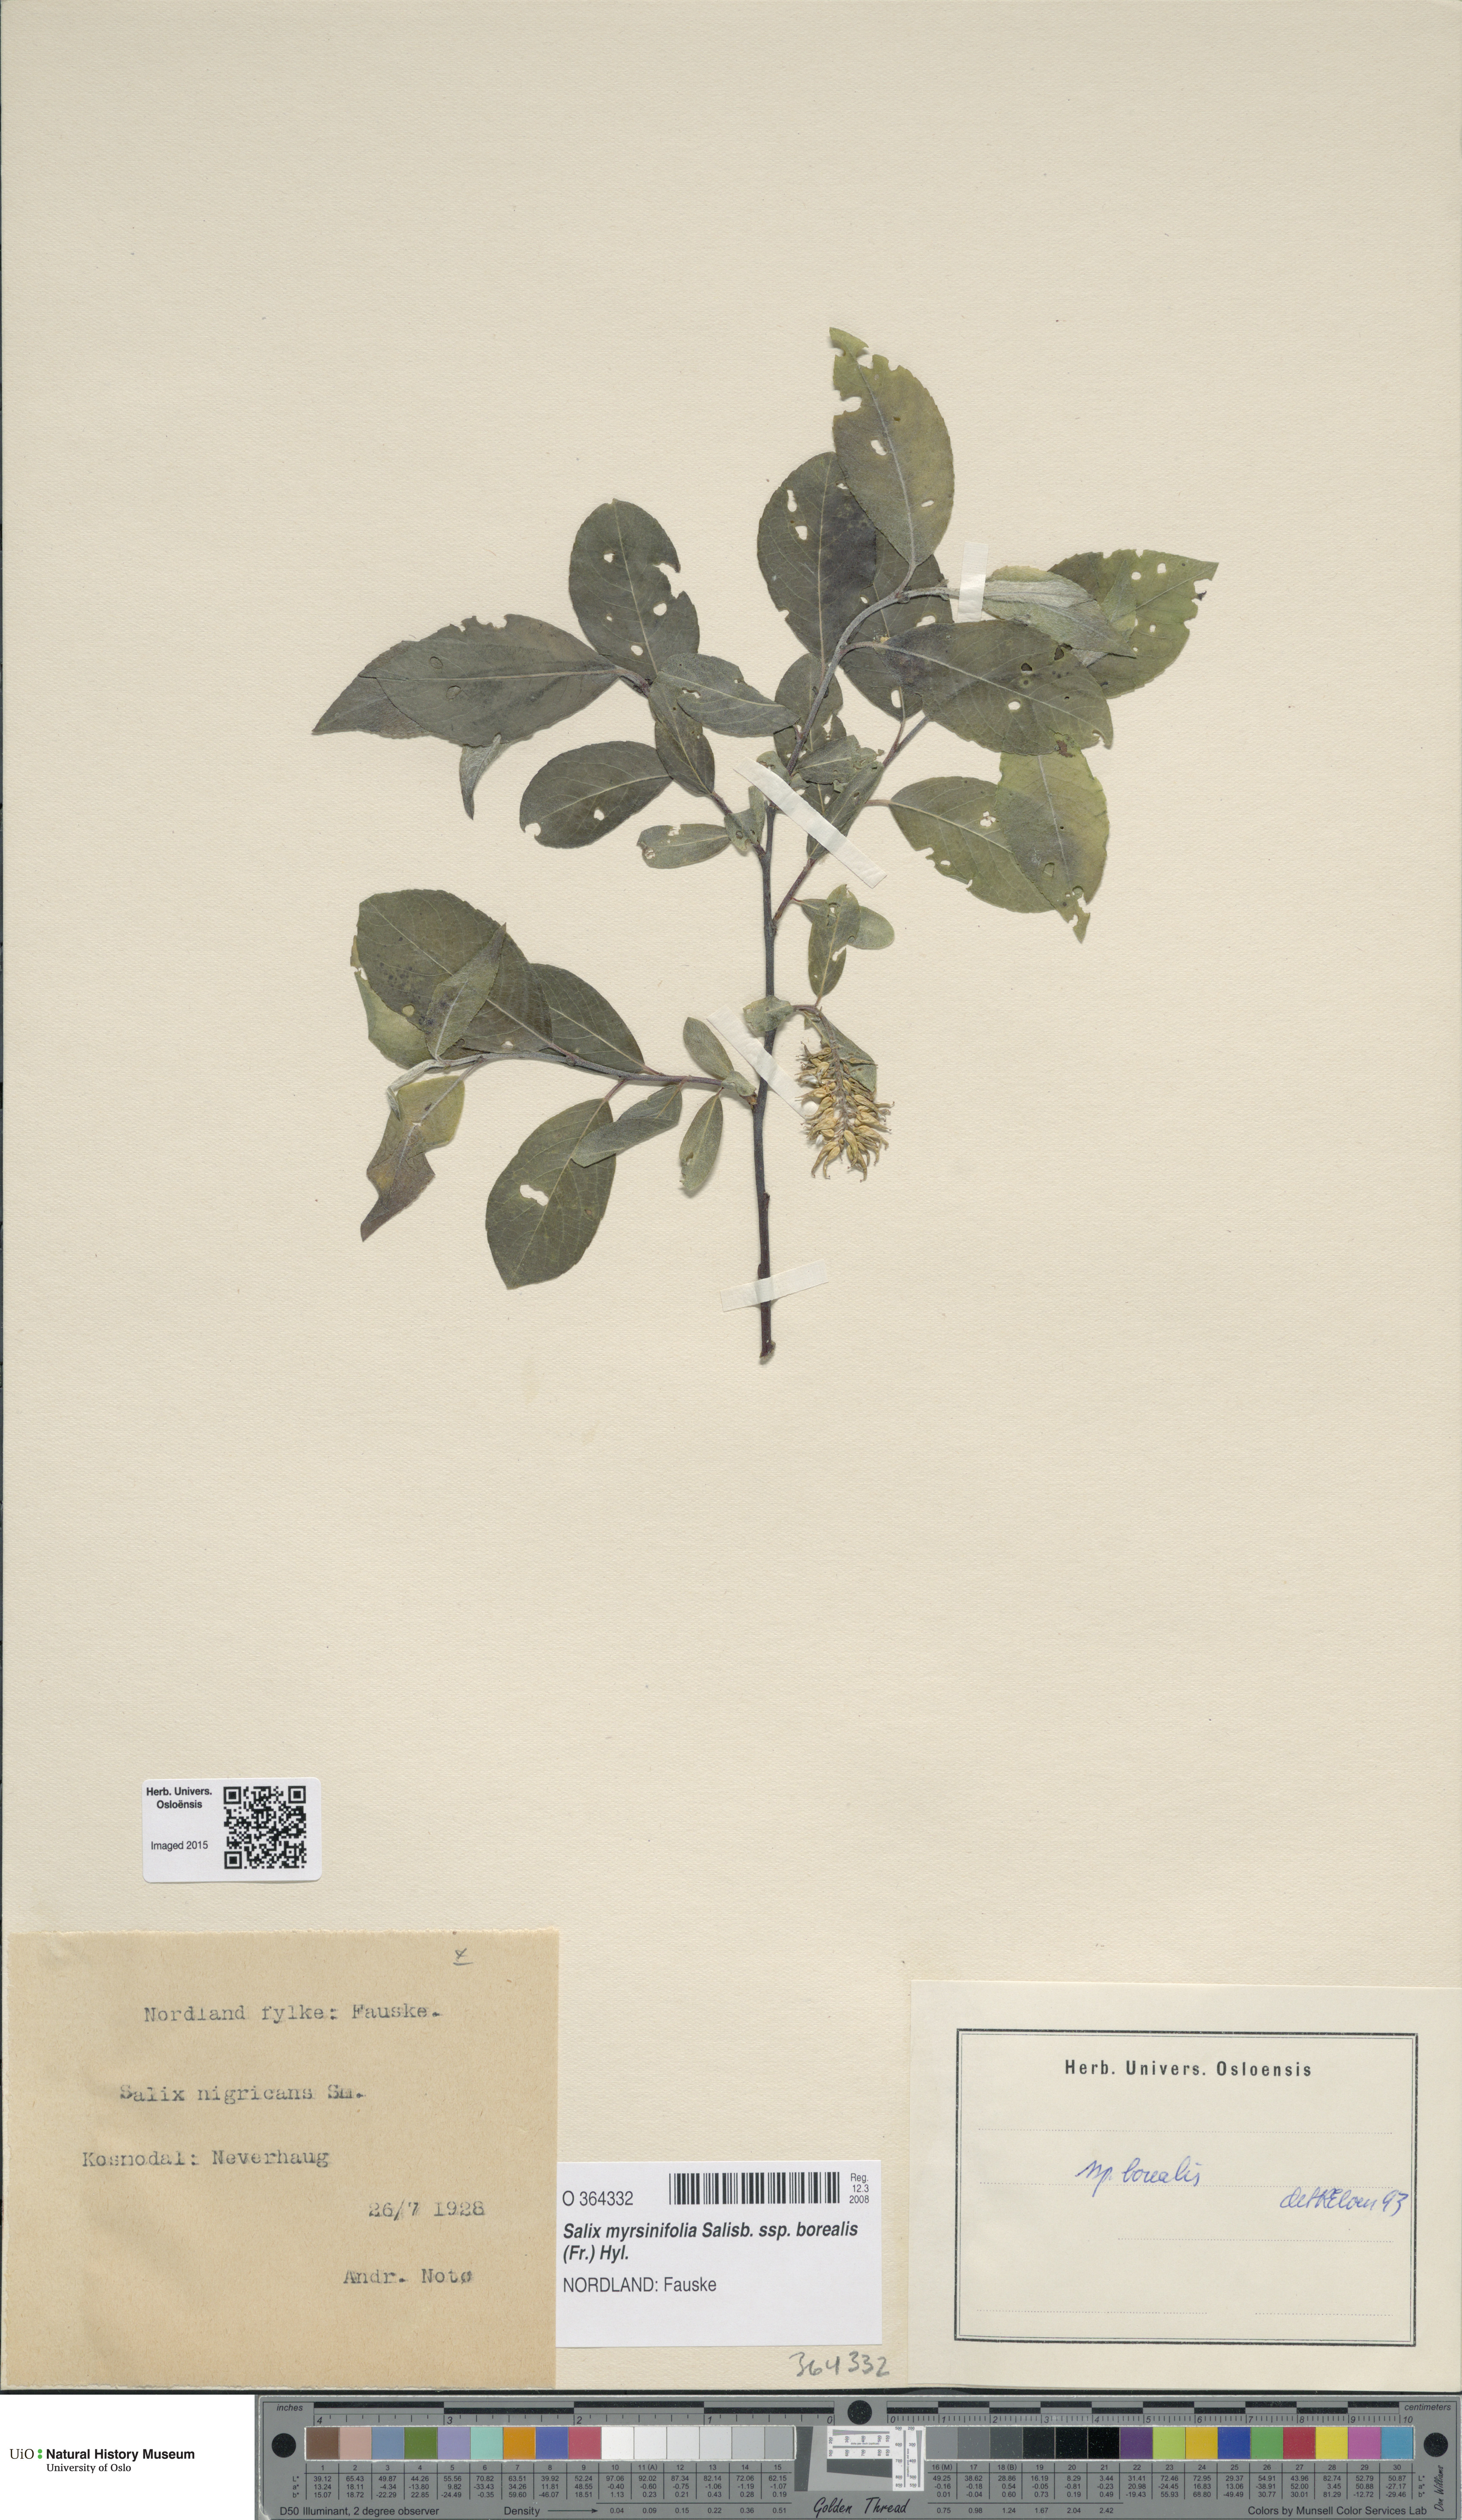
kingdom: Plantae
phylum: Tracheophyta
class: Magnoliopsida
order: Malpighiales
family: Salicaceae
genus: Salix
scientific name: Salix myrsinifolia
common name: Dark-leaved willow
